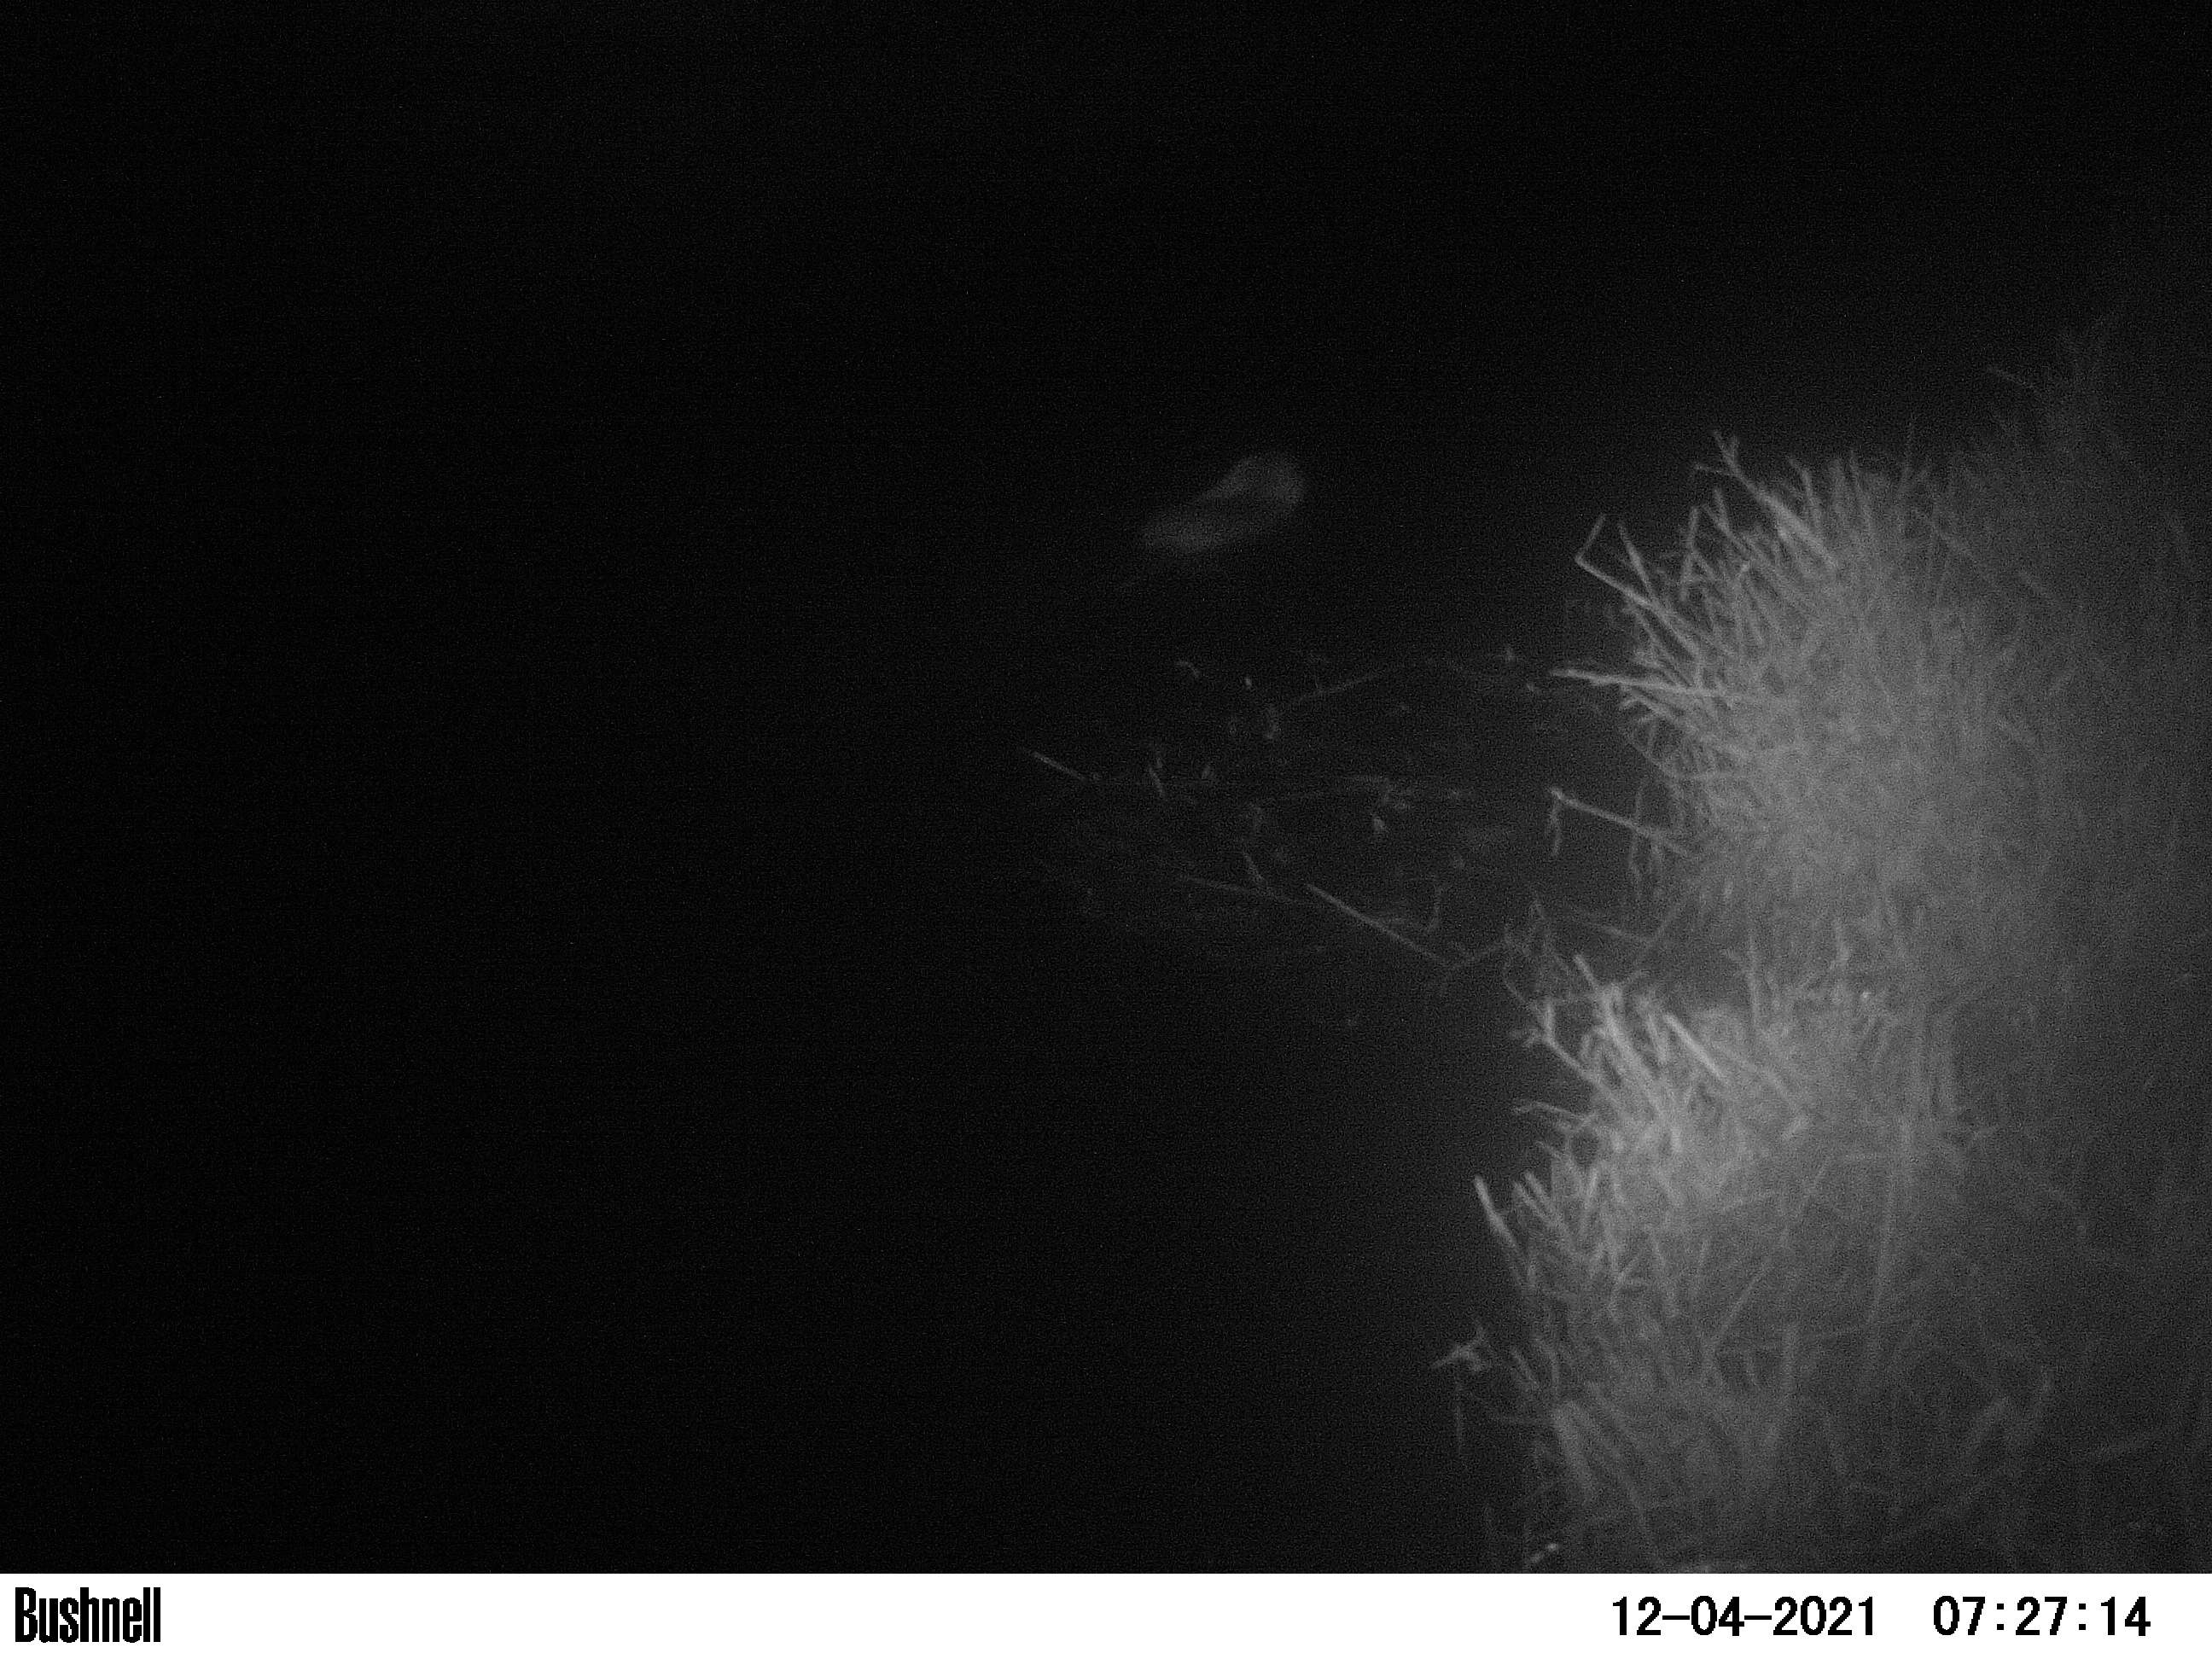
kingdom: Animalia
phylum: Chordata
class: Mammalia
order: Rodentia
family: Muridae
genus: Rattus
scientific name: Rattus norvegicus
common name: Brown rat
